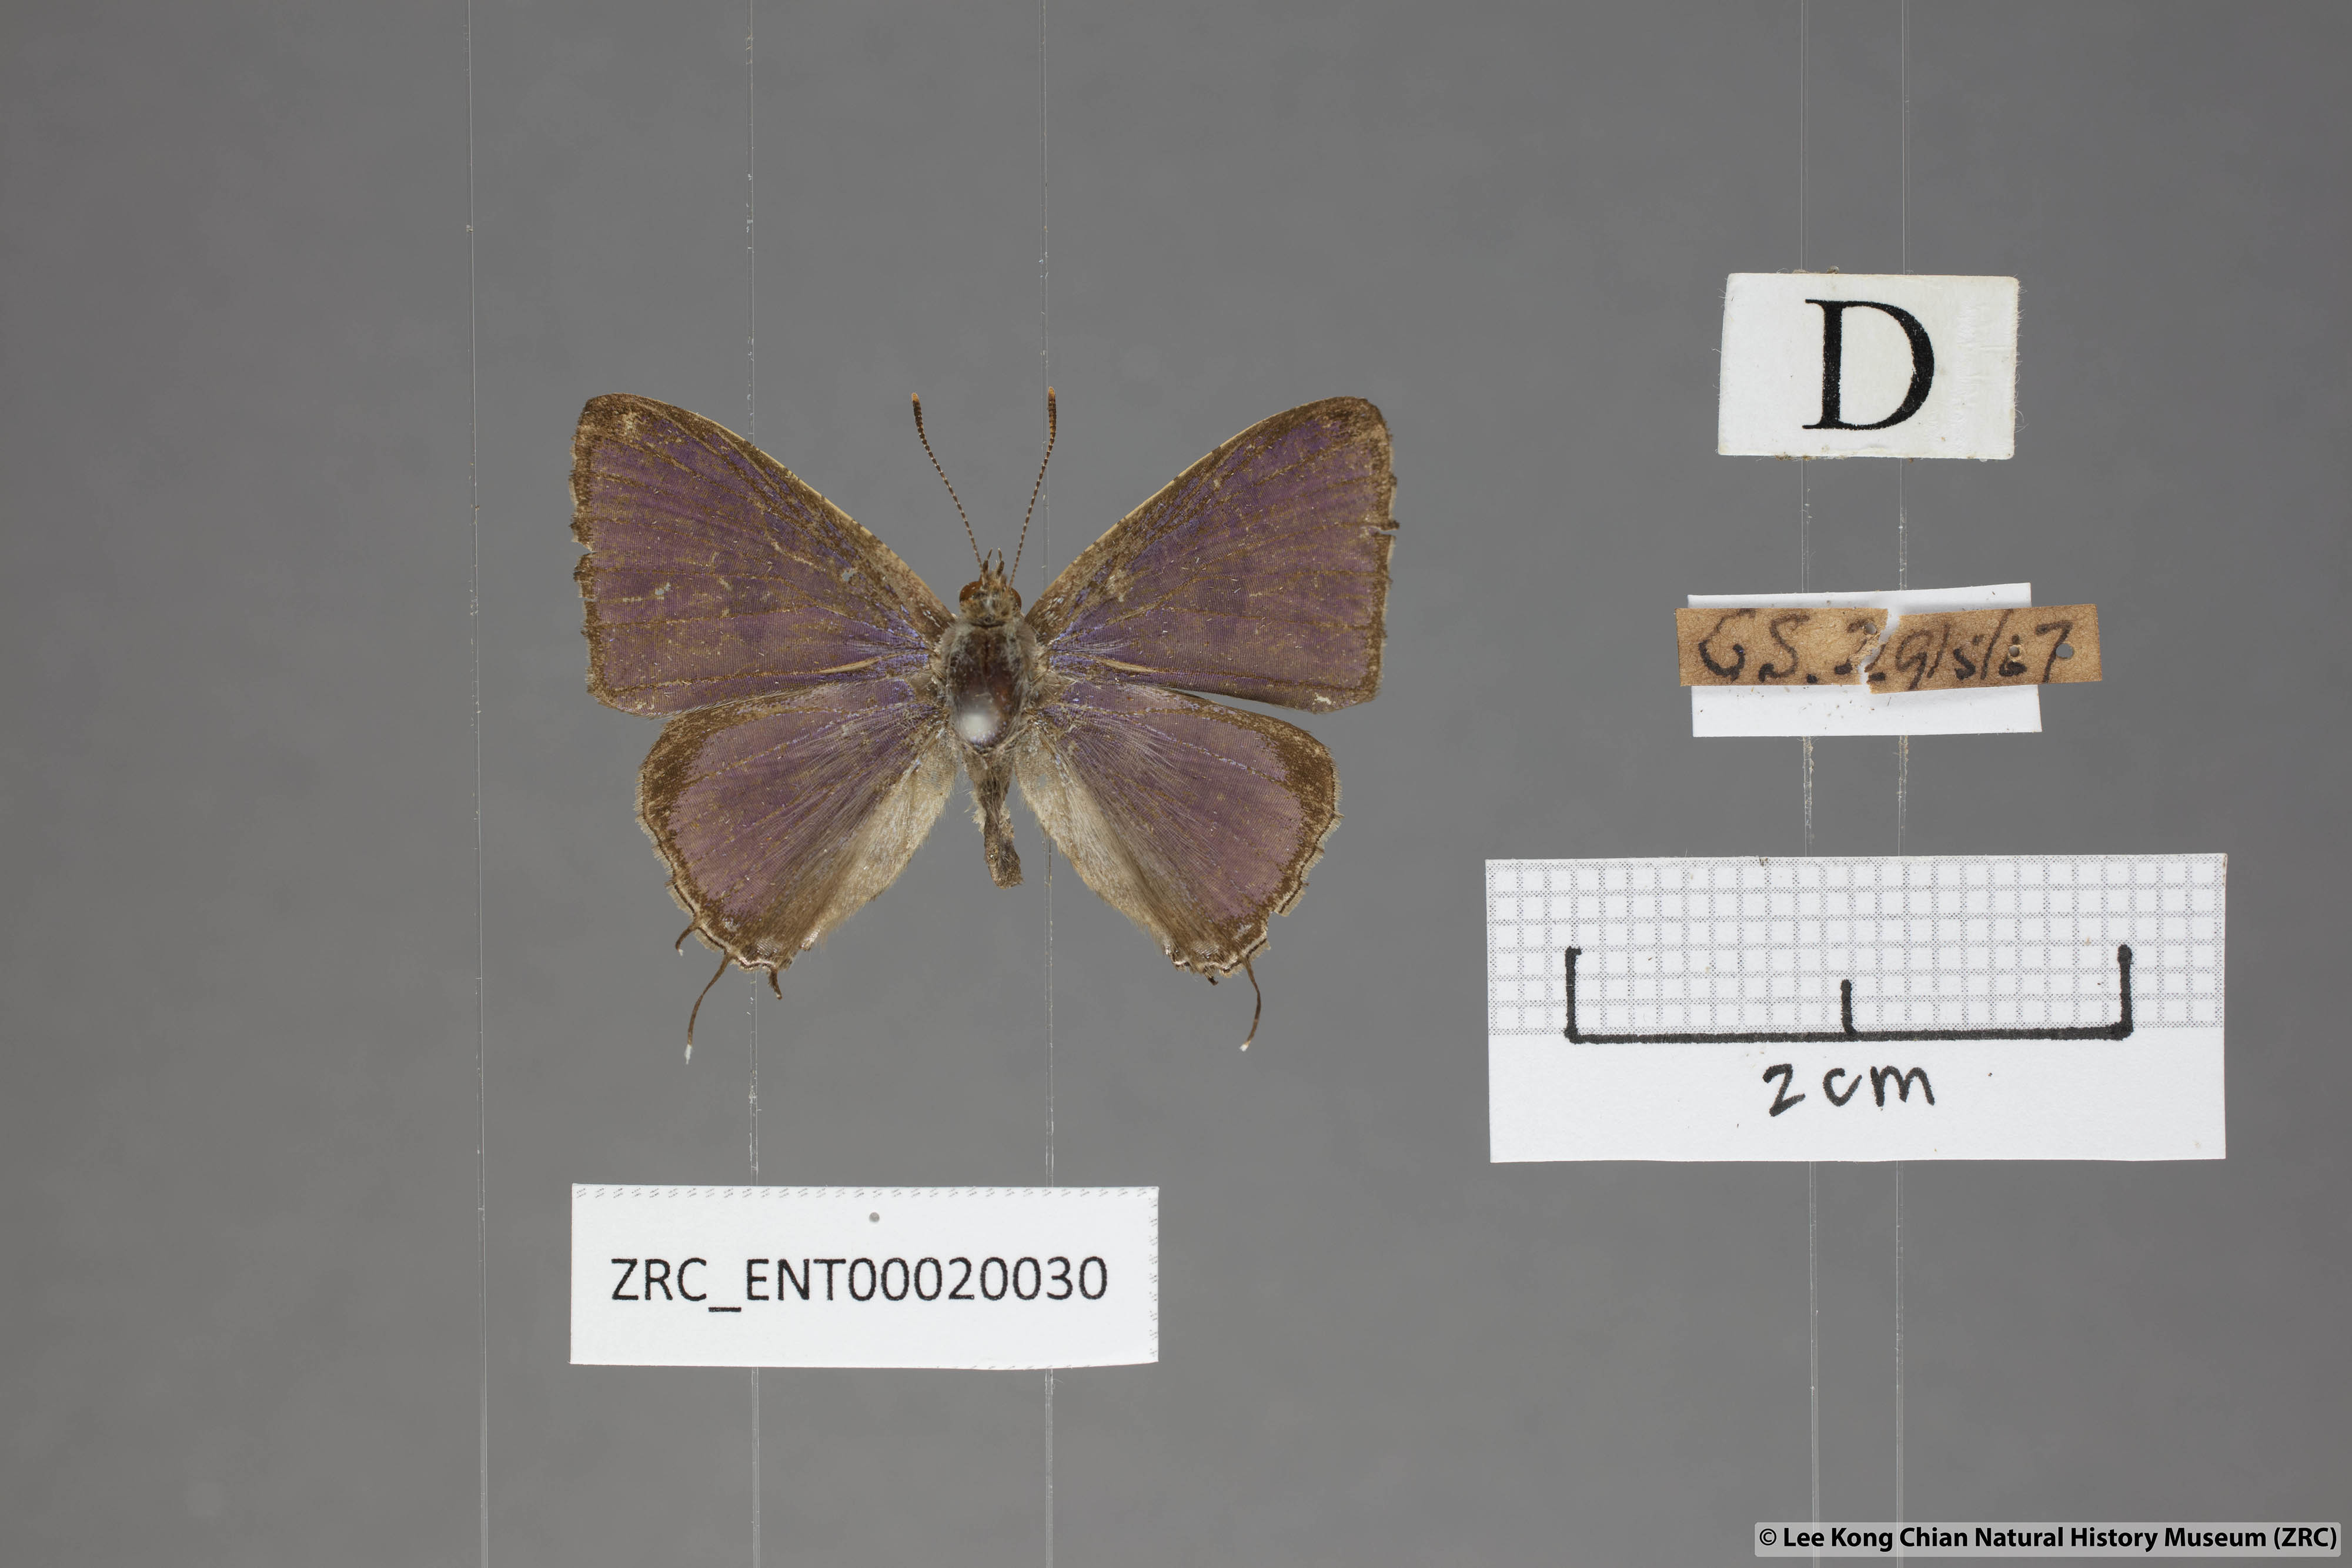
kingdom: Animalia
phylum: Arthropoda
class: Insecta
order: Lepidoptera
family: Lycaenidae
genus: Catapaecilma
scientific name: Catapaecilma major
